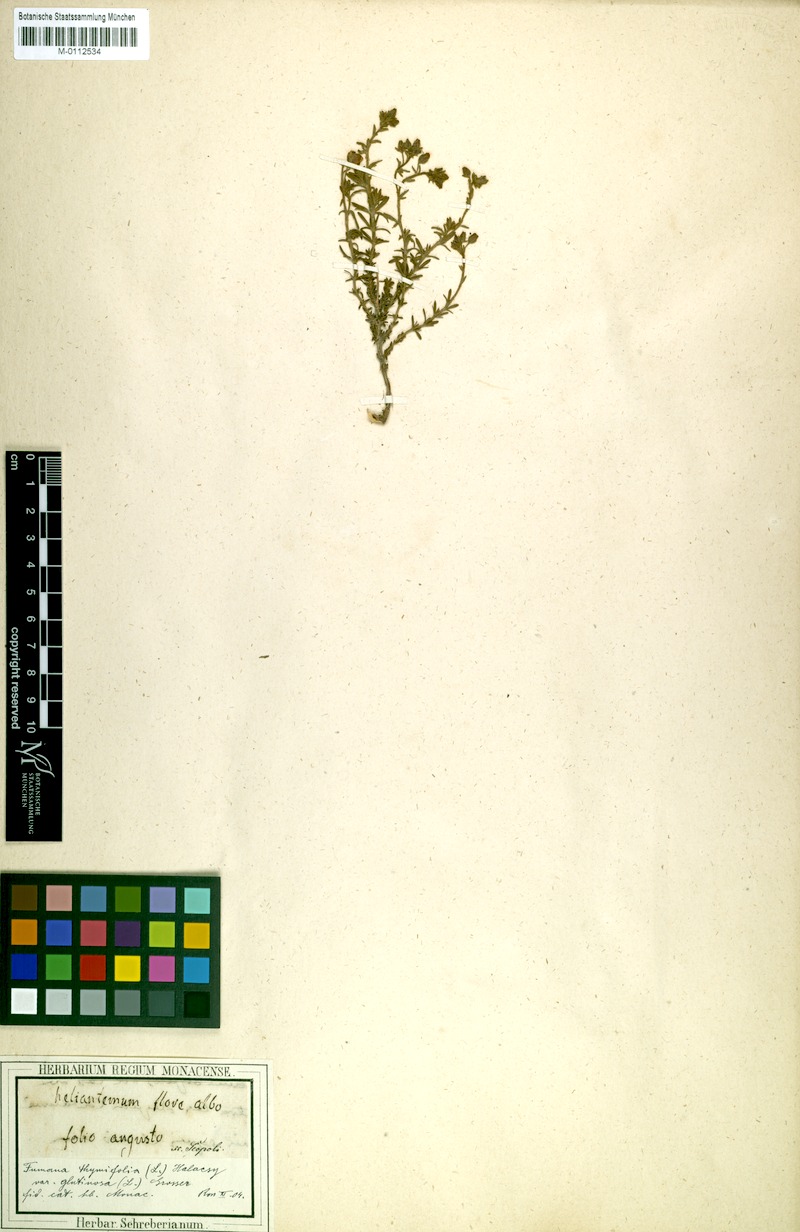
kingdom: Plantae
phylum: Tracheophyta
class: Magnoliopsida
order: Malvales
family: Cistaceae
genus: Fumana
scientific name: Fumana thymifolia
